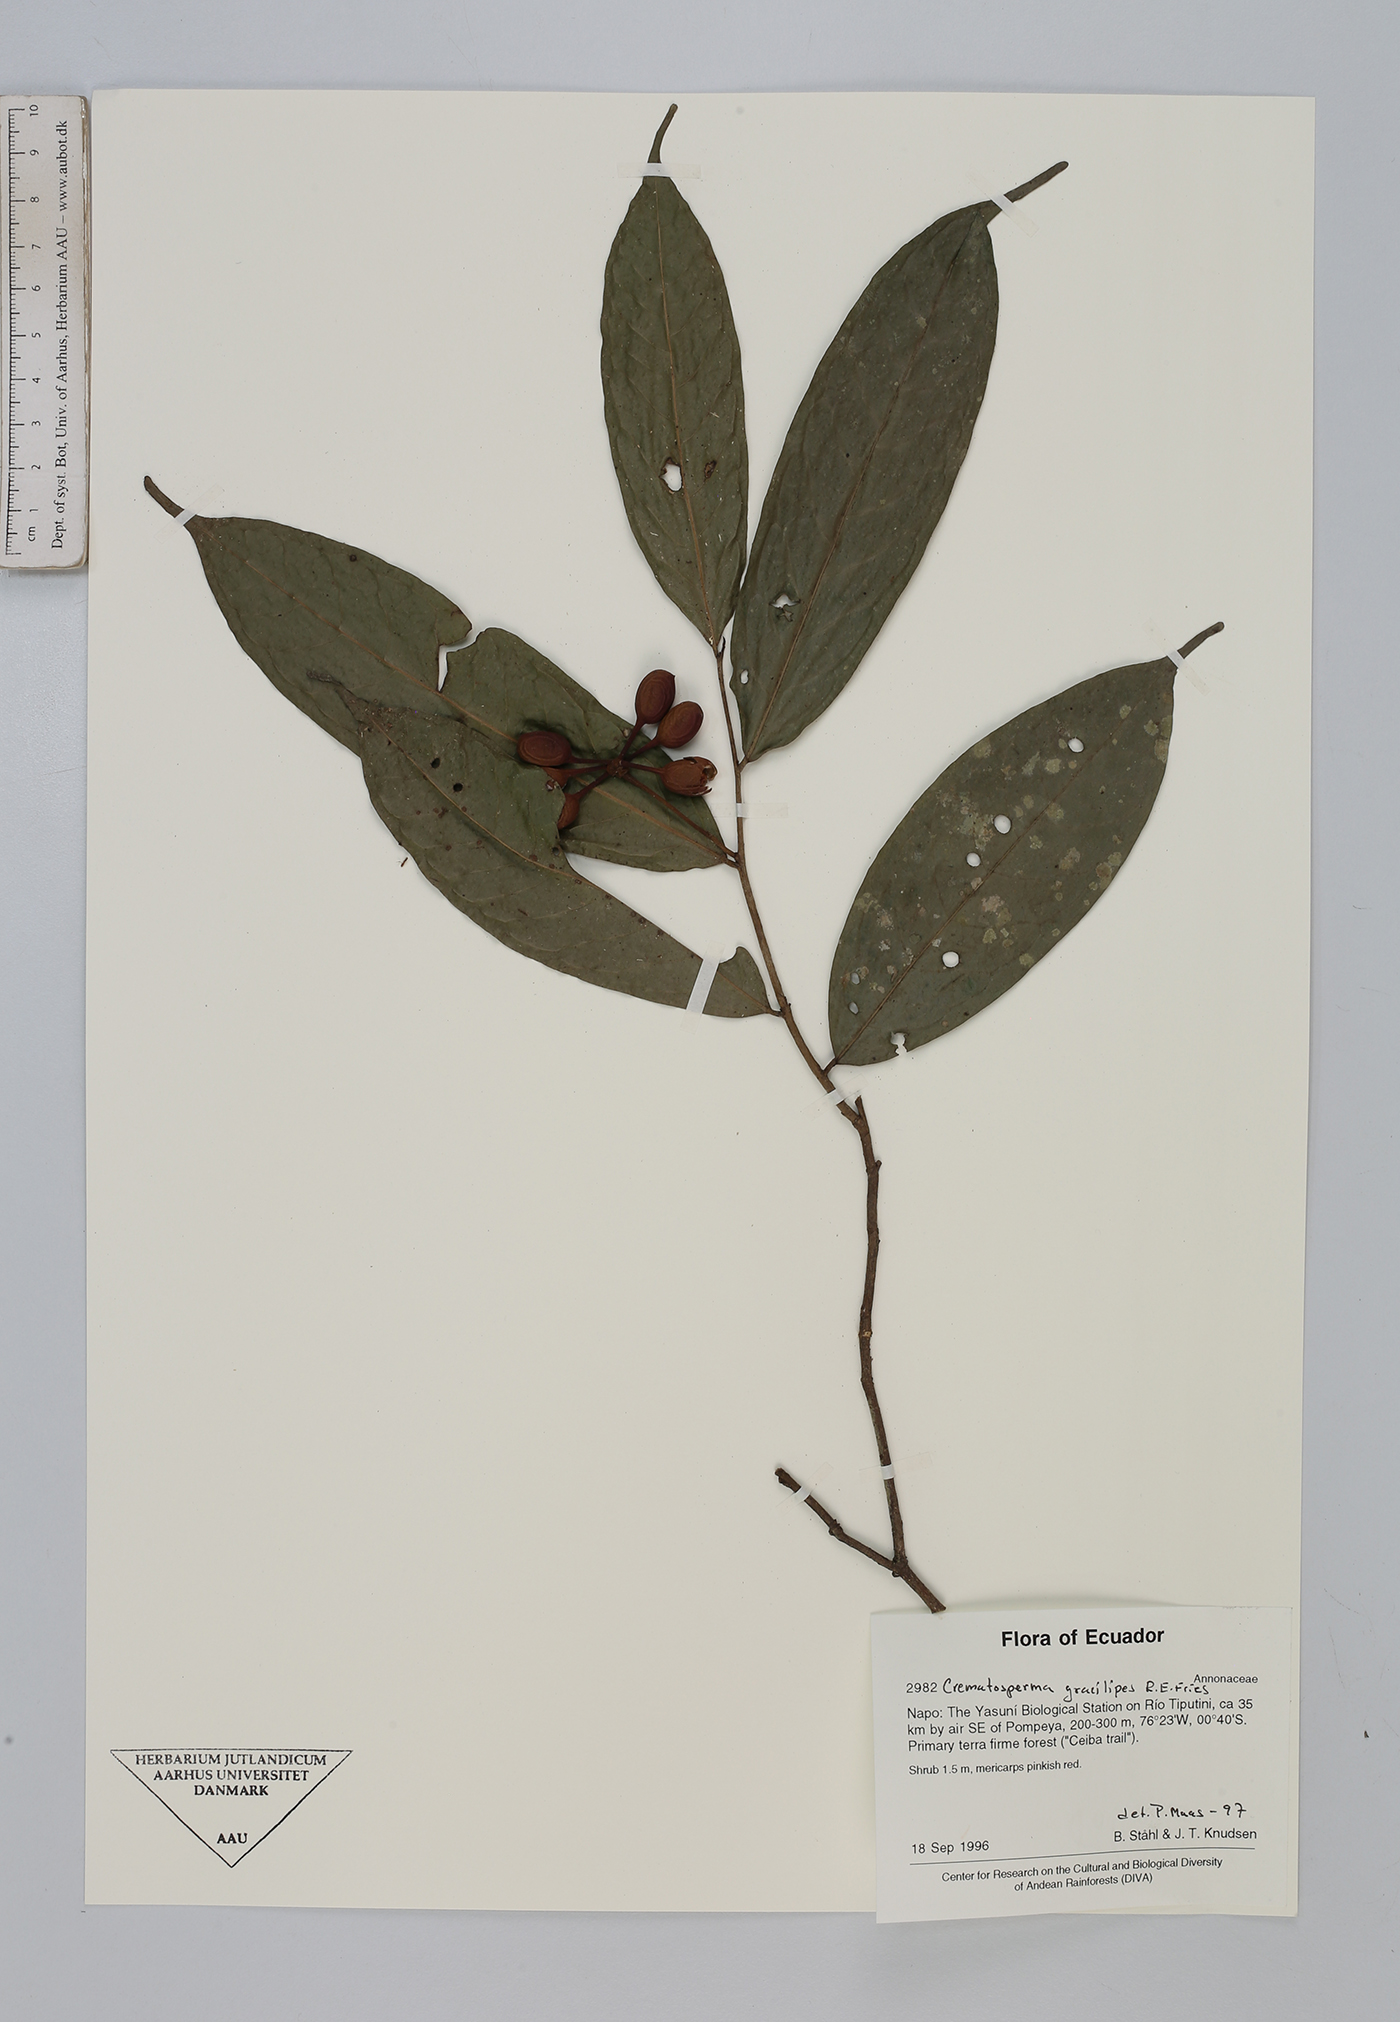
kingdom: Plantae
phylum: Tracheophyta
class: Magnoliopsida
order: Magnoliales
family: Annonaceae
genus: Cremastosperma
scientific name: Cremastosperma gracilipes
